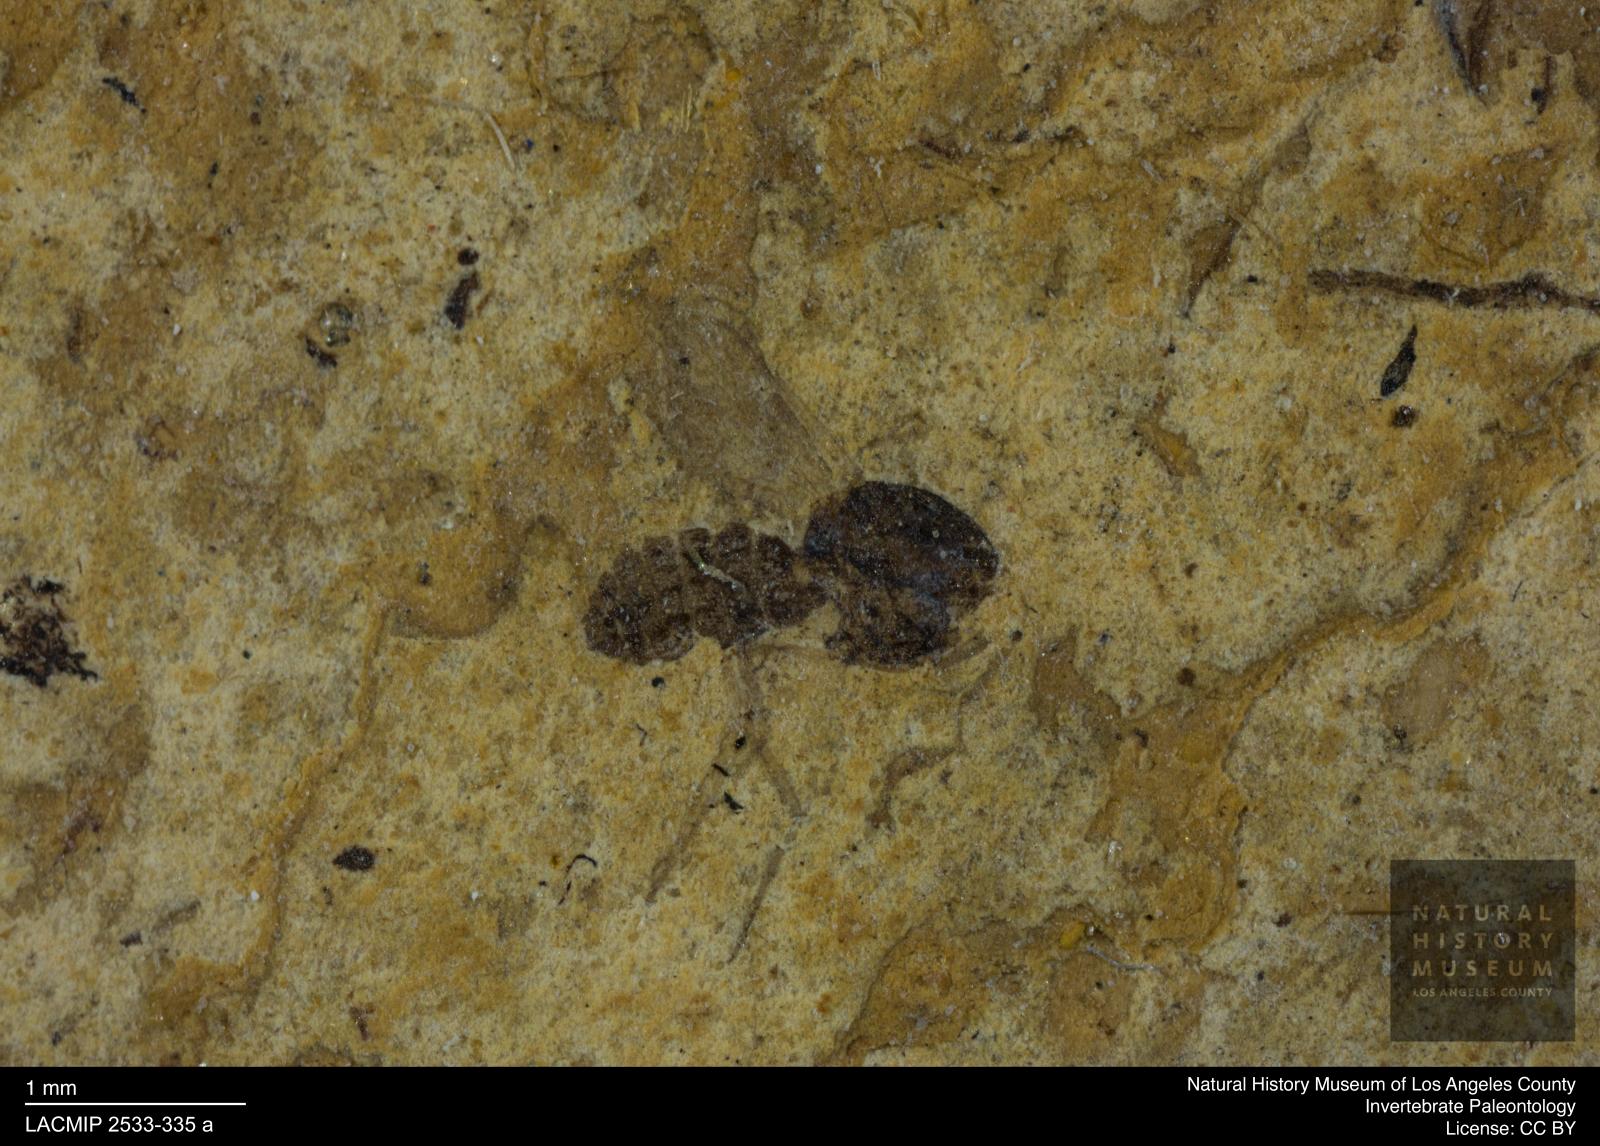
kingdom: Animalia
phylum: Arthropoda
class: Insecta
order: Diptera
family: Ceratopogonidae
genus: Culicoides
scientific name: Culicoides abbreviatipennis
